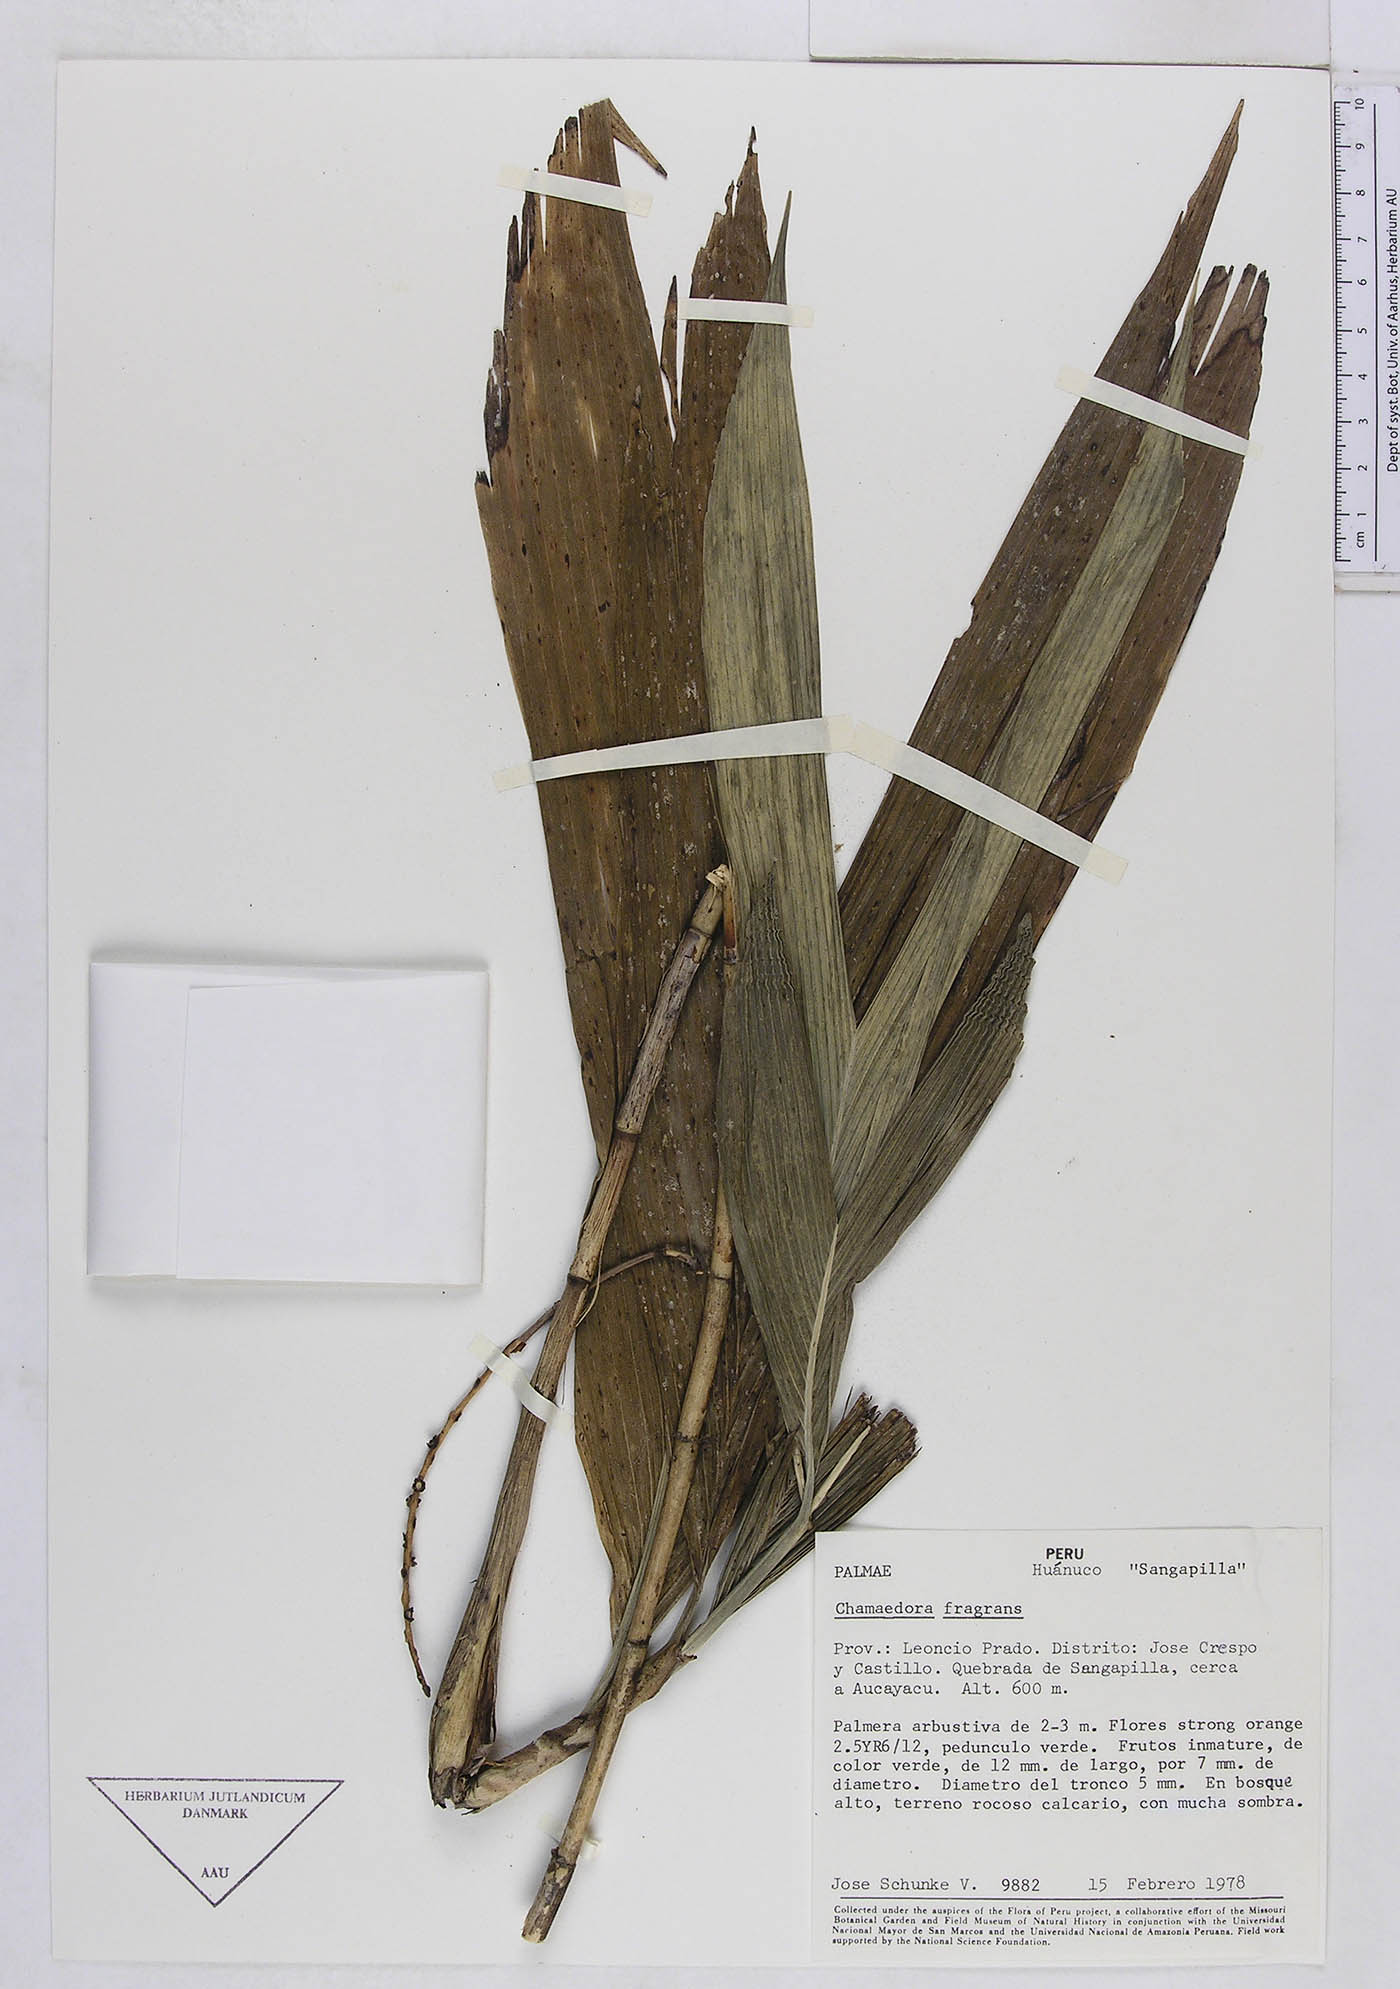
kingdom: Plantae
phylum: Tracheophyta
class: Liliopsida
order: Arecales
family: Arecaceae
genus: Chamaedorea
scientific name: Chamaedorea fragrans
